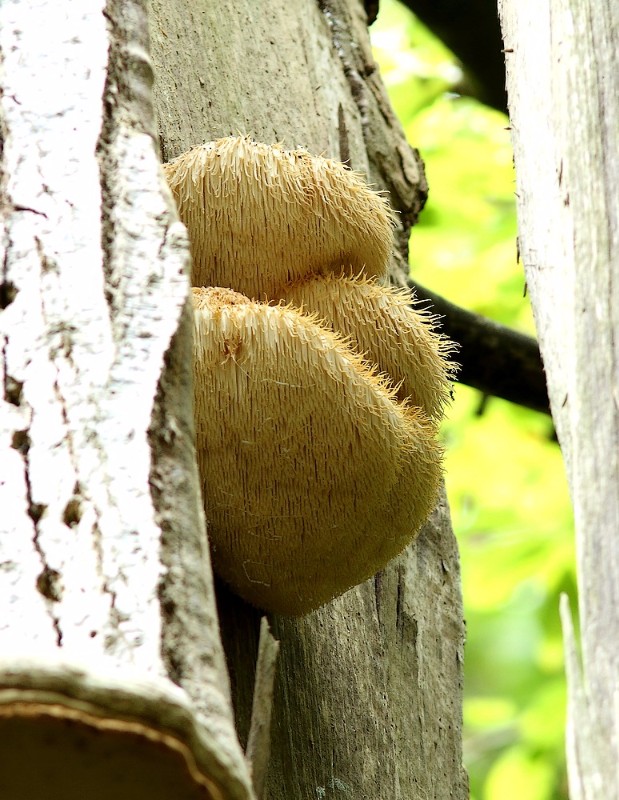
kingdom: Fungi
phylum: Basidiomycota
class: Agaricomycetes
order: Russulales
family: Hericiaceae
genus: Hericium
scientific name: Hericium erinaceus
